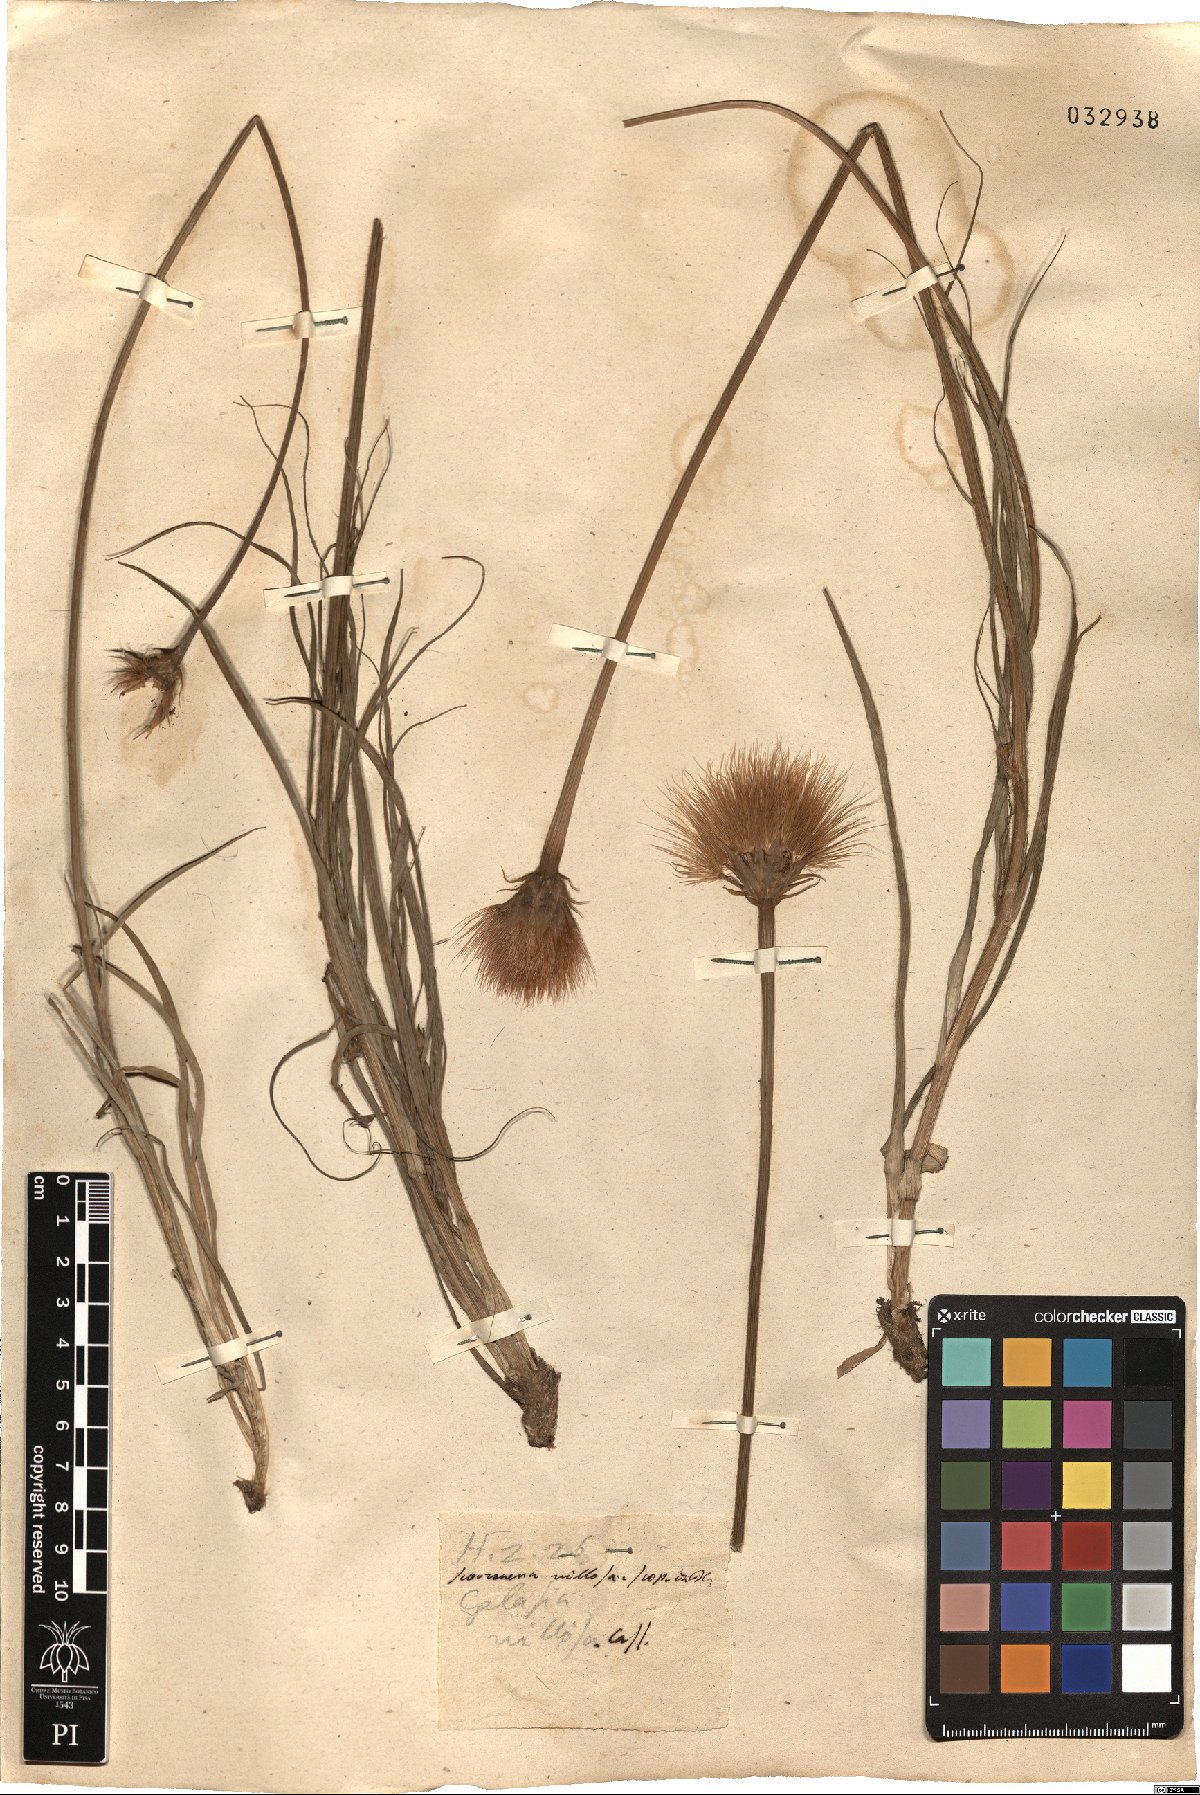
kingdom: Plantae
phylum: Tracheophyta
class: Magnoliopsida
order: Asterales
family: Asteraceae
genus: Gelasia
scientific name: Gelasia villosa
